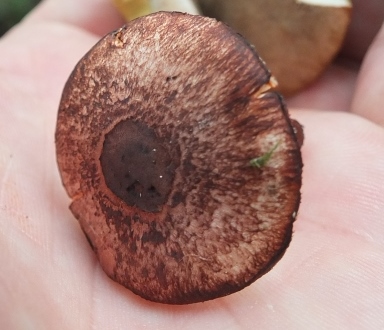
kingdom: Fungi
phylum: Basidiomycota
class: Agaricomycetes
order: Agaricales
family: Agaricaceae
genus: Leucoagaricus
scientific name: Leucoagaricus croceovelutinus
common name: safran-silkehat
